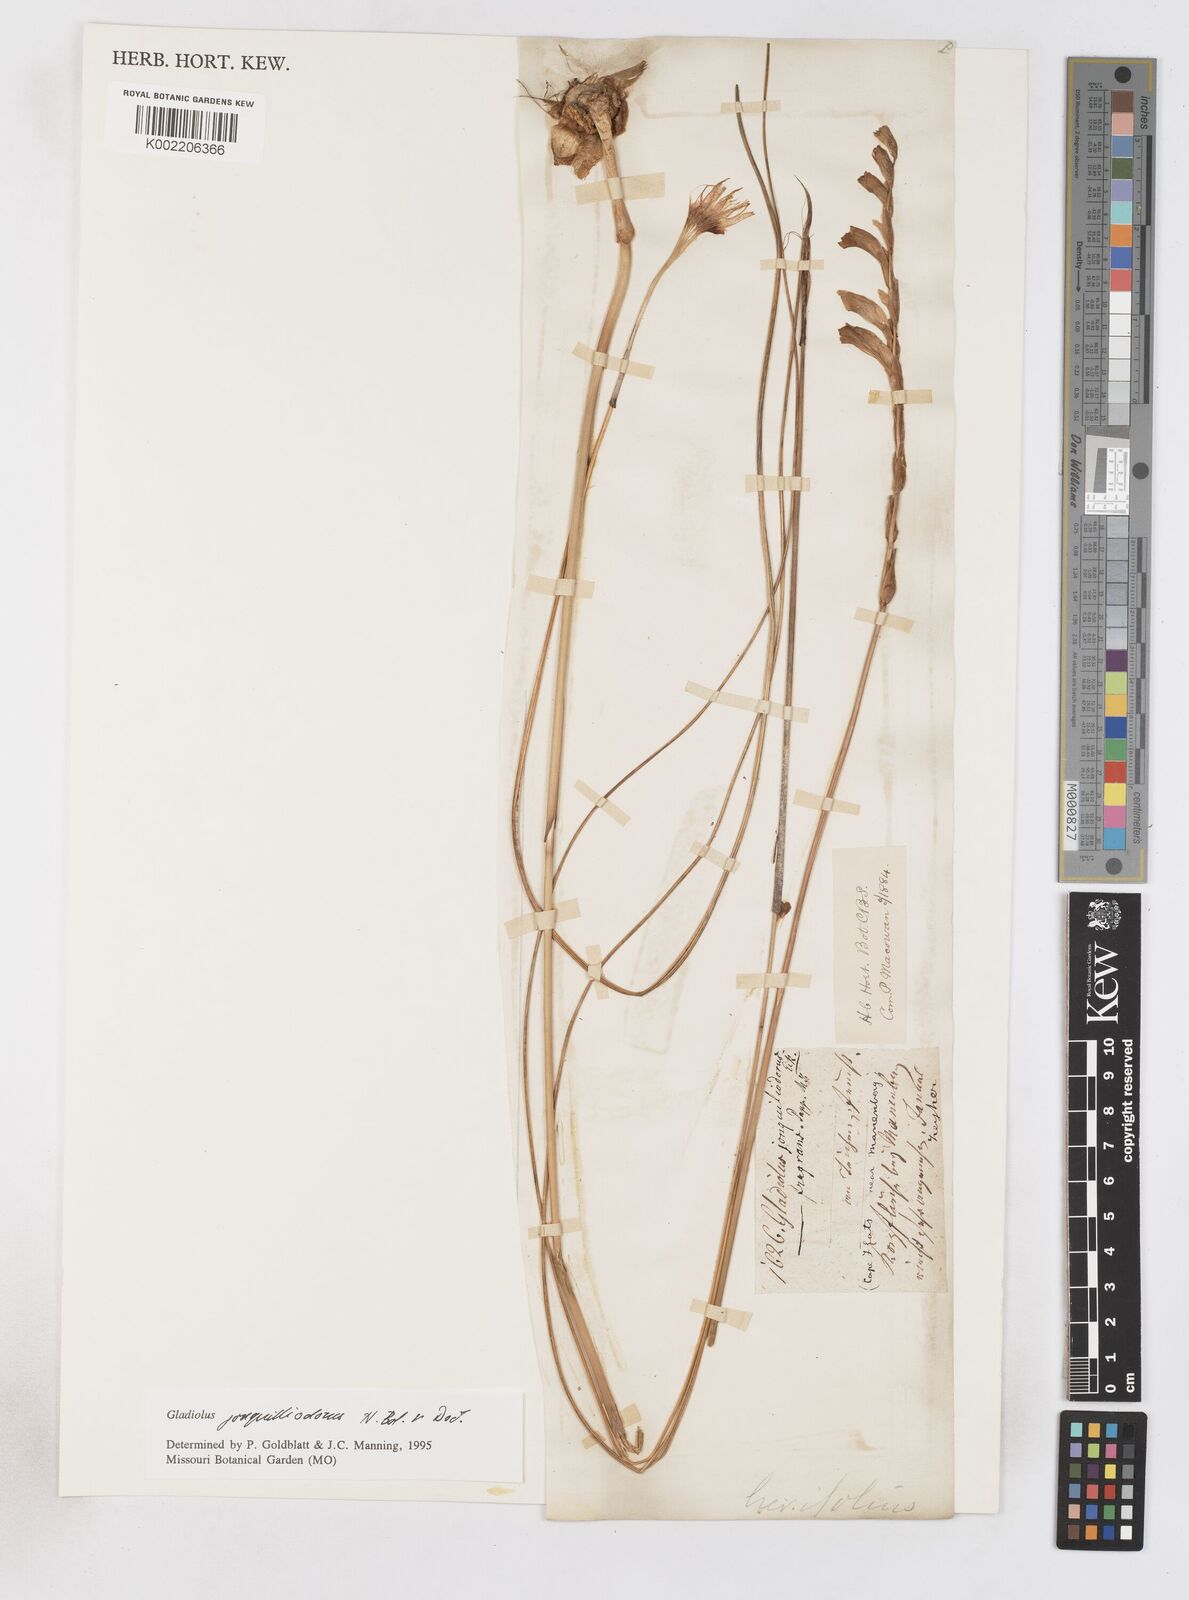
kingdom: Plantae
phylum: Tracheophyta
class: Liliopsida
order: Asparagales
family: Iridaceae
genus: Gladiolus
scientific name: Gladiolus jonquilodorus
